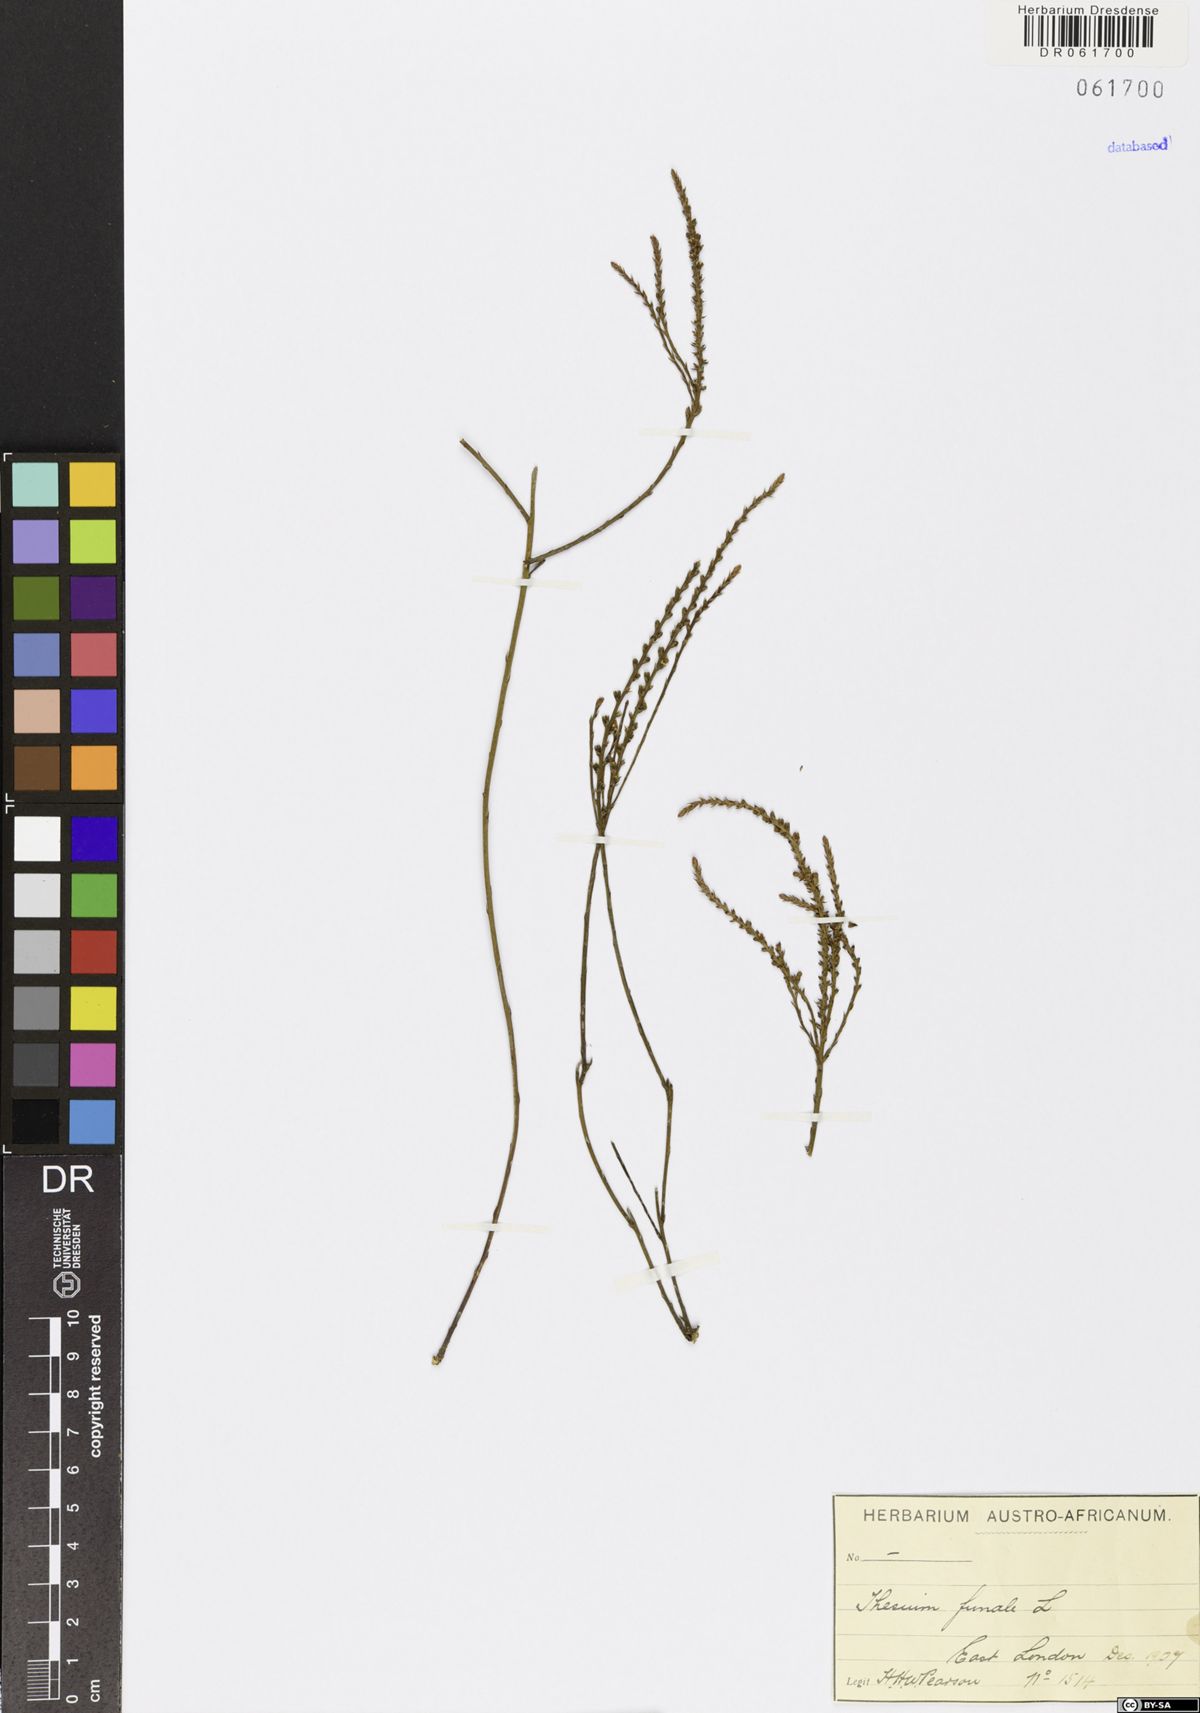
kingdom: Plantae
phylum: Tracheophyta
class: Magnoliopsida
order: Santalales
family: Thesiaceae
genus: Thesium
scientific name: Thesium funale
